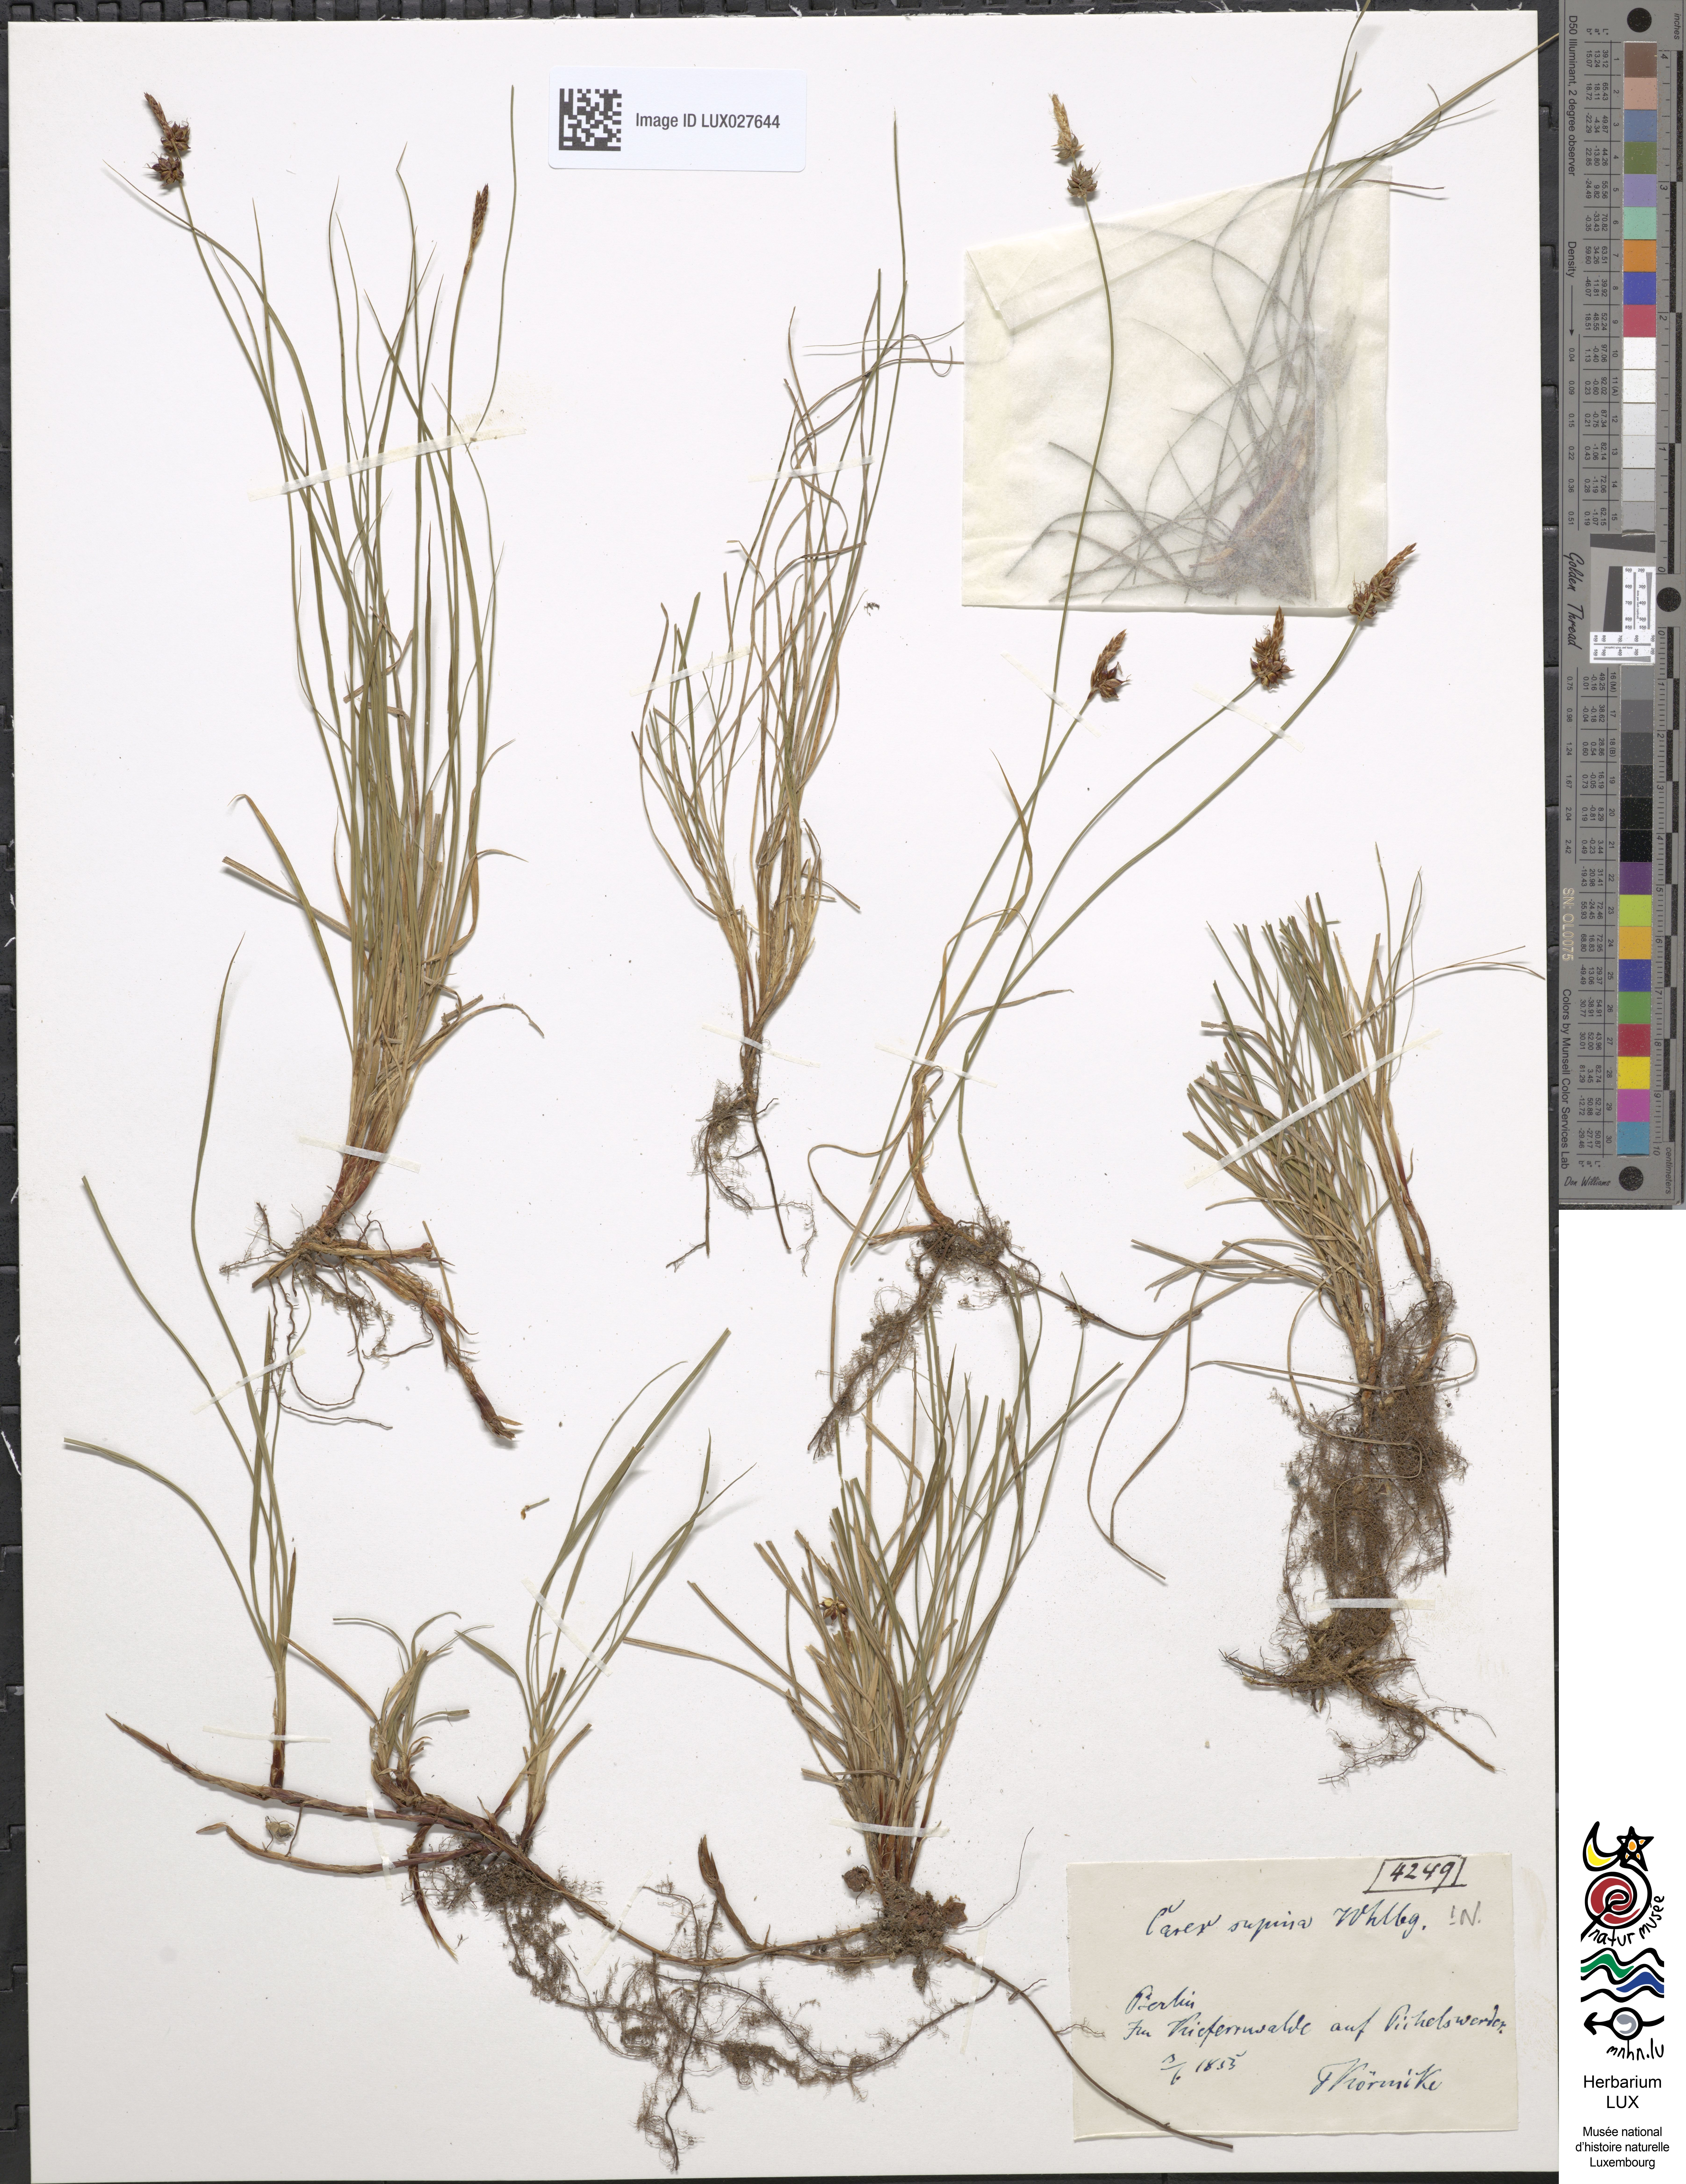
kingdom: Plantae
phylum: Tracheophyta
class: Liliopsida
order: Poales
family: Cyperaceae
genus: Carex
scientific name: Carex supina
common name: Lying-back sedge
